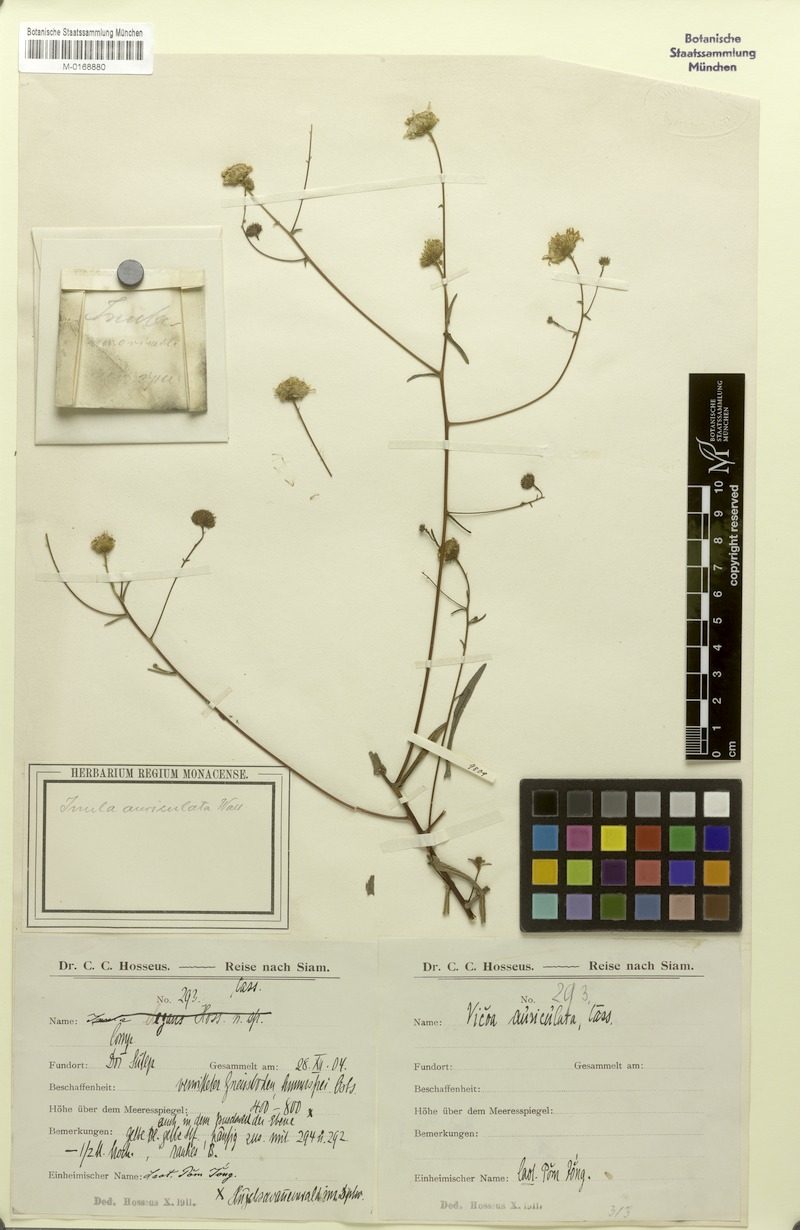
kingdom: Plantae
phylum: Tracheophyta
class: Magnoliopsida
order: Asterales
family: Asteraceae
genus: Vicoa
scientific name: Vicoa indica
